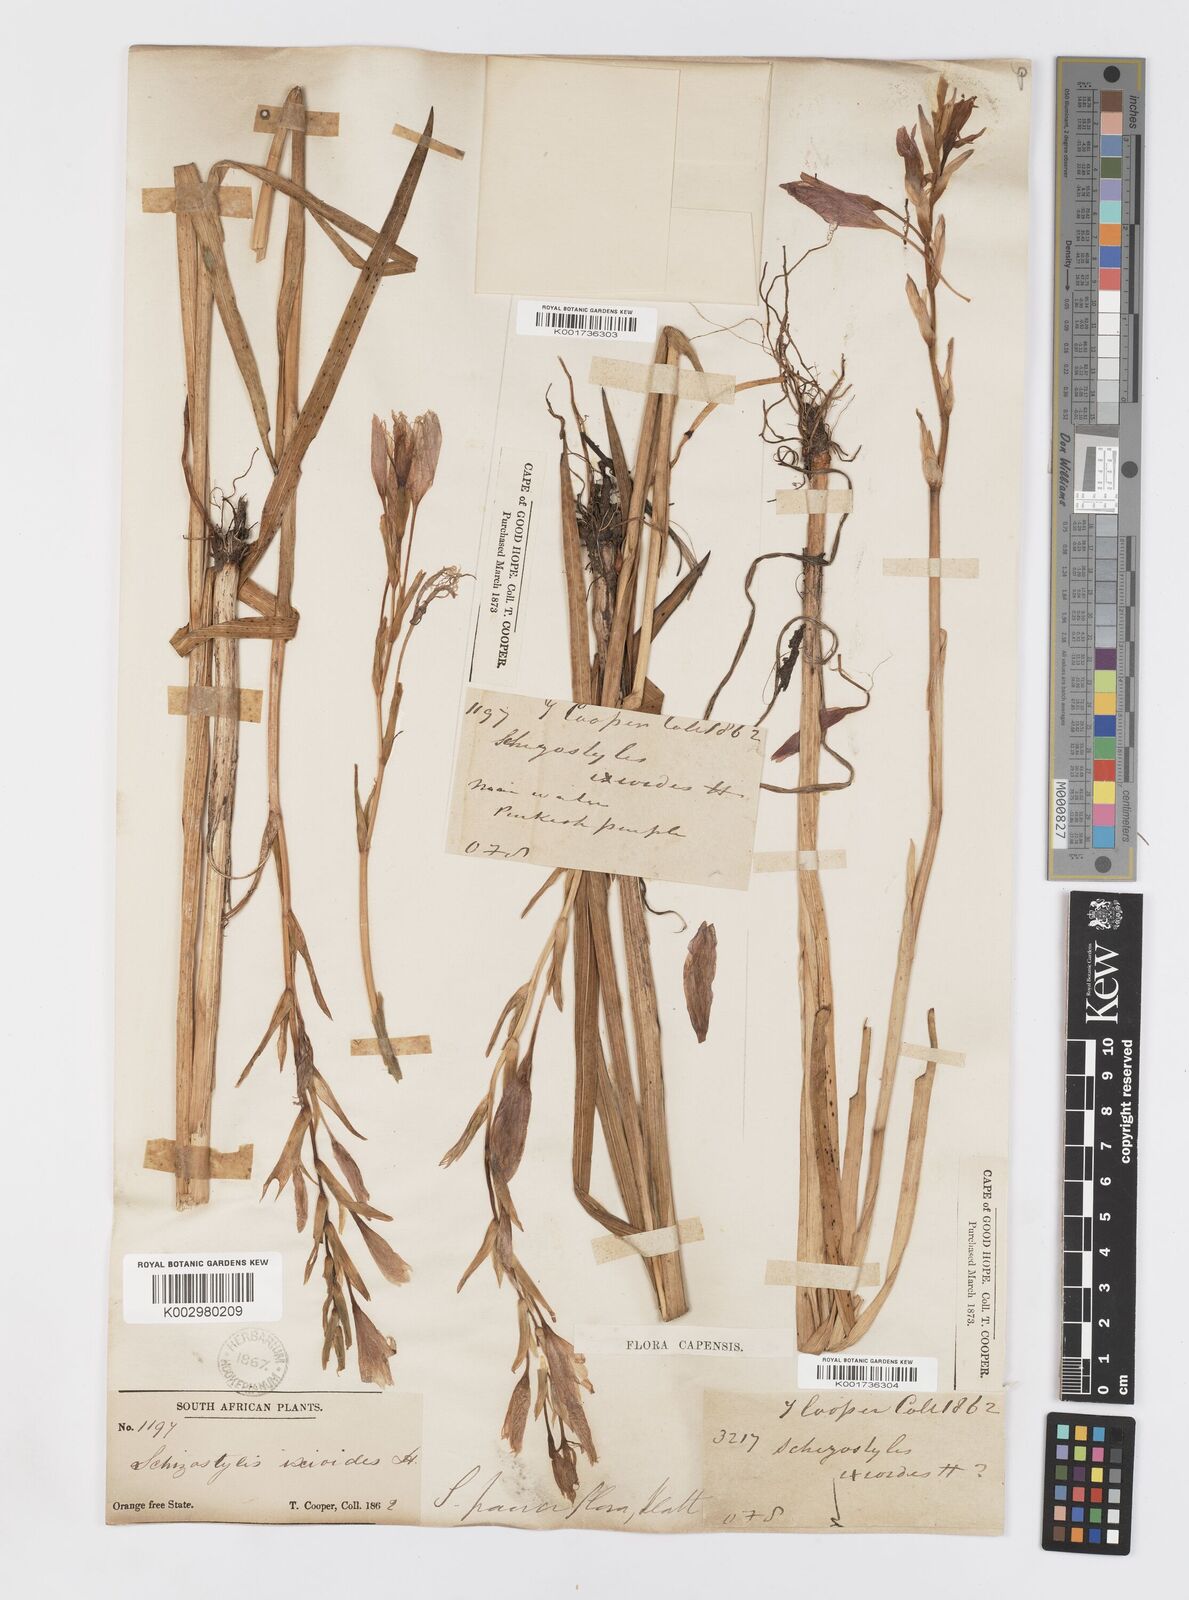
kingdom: Plantae
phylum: Tracheophyta
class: Liliopsida
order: Asparagales
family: Iridaceae
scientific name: Iridaceae
